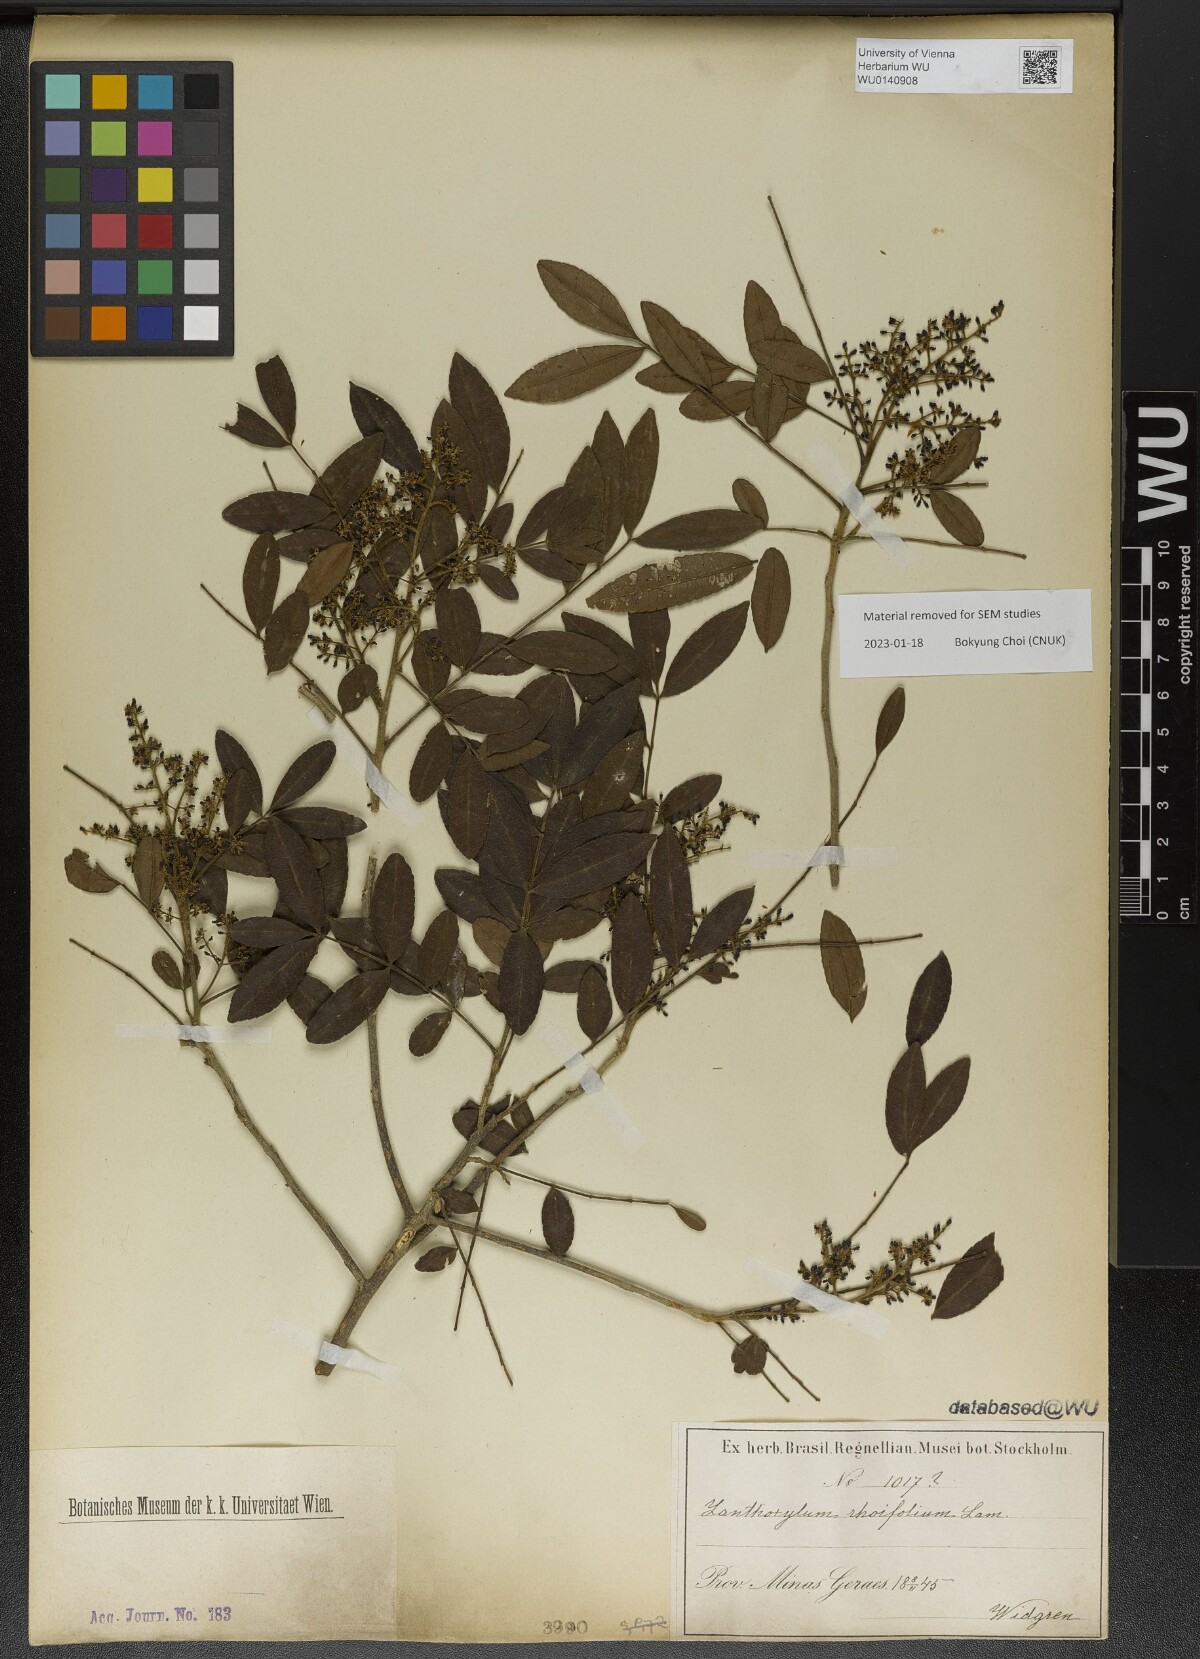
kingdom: Plantae
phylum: Tracheophyta
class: Magnoliopsida
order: Sapindales
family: Rutaceae
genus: Zanthoxylum
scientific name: Zanthoxylum rhoifolium
